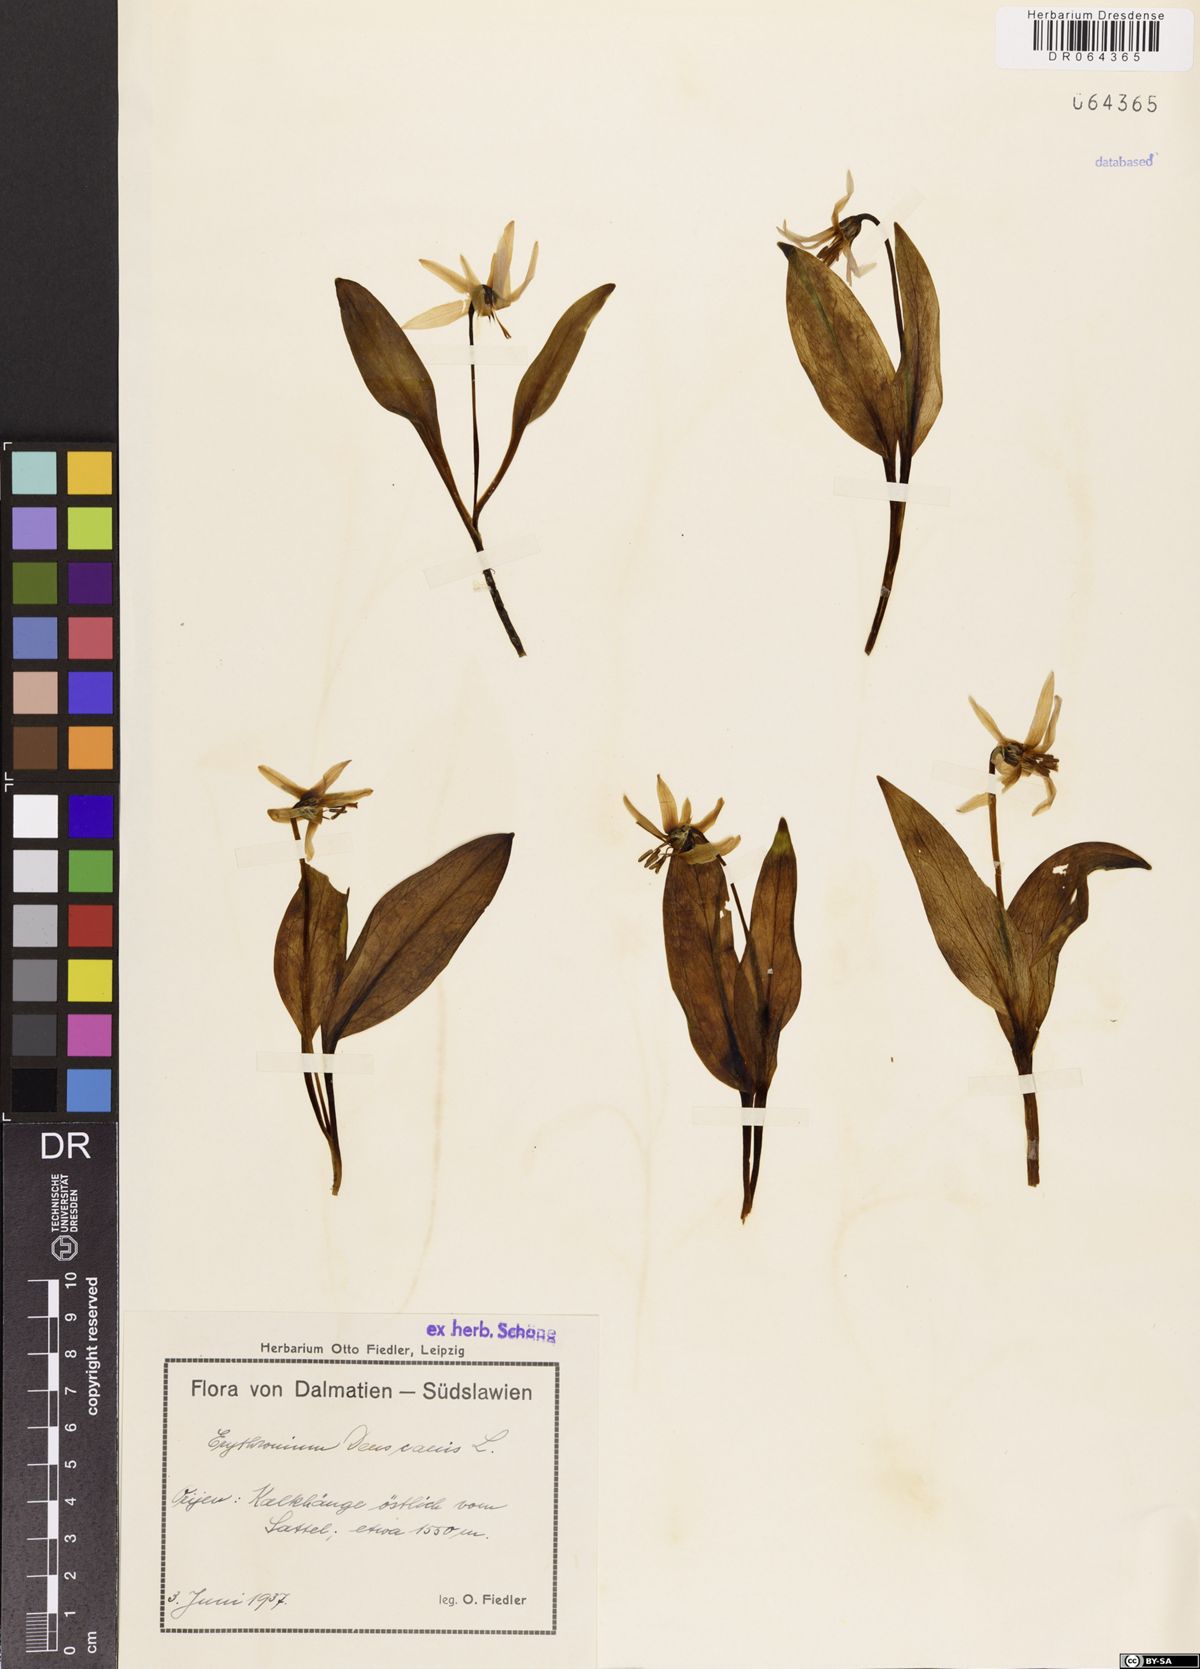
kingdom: Plantae
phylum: Tracheophyta
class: Liliopsida
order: Liliales
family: Liliaceae
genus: Erythronium
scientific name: Erythronium dens-canis
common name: Dog's-tooth-violet
